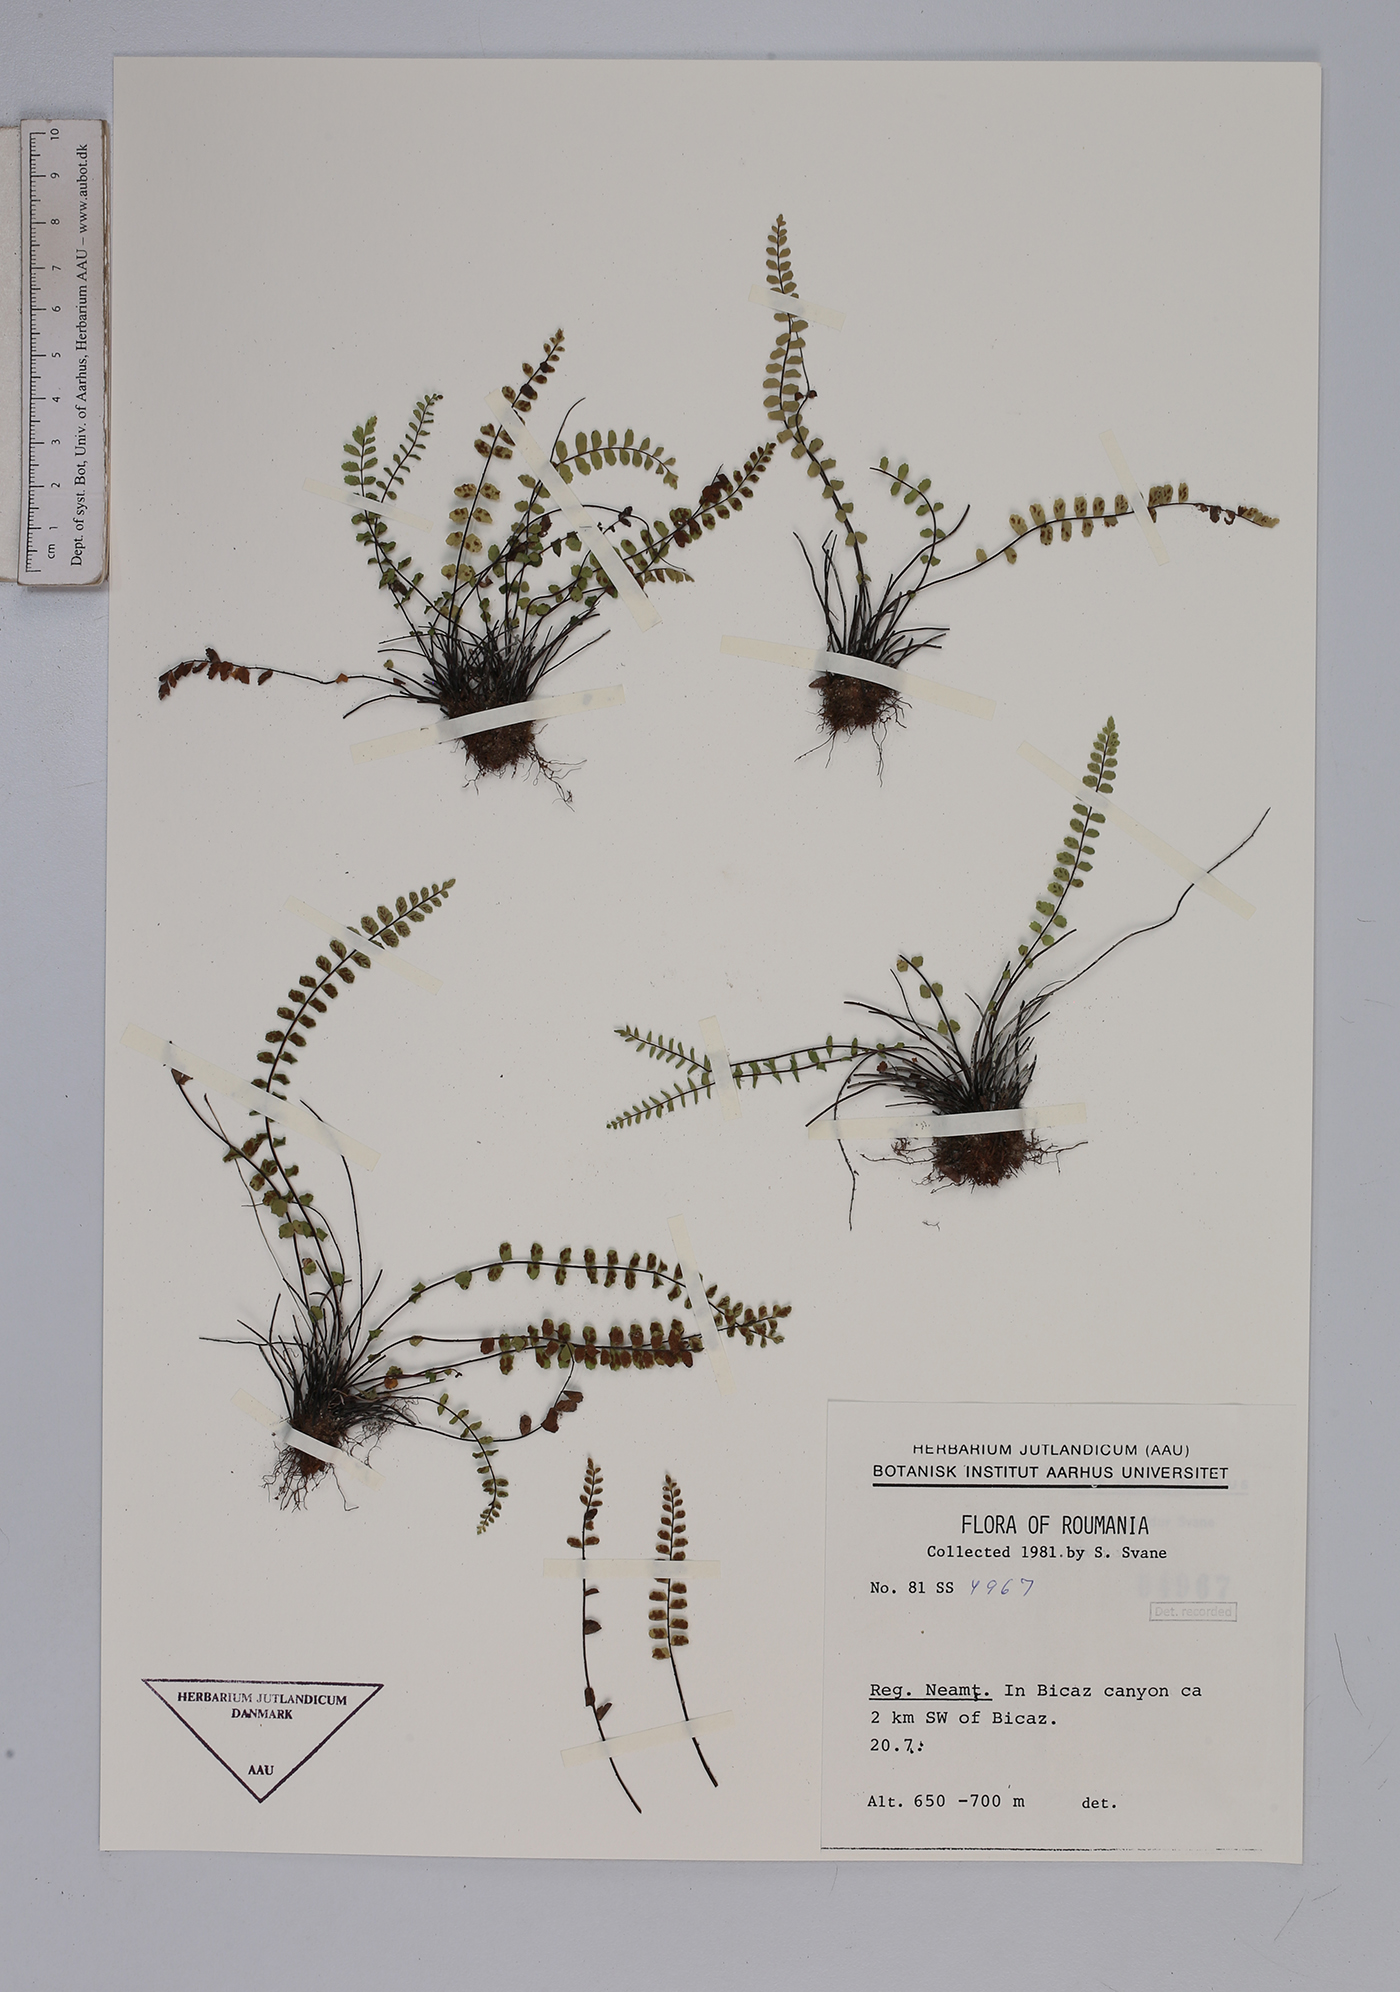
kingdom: Plantae
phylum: Tracheophyta
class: Polypodiopsida
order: Polypodiales
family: Aspleniaceae
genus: Asplenium
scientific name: Asplenium trichomanes
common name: Maidenhair spleenwort
